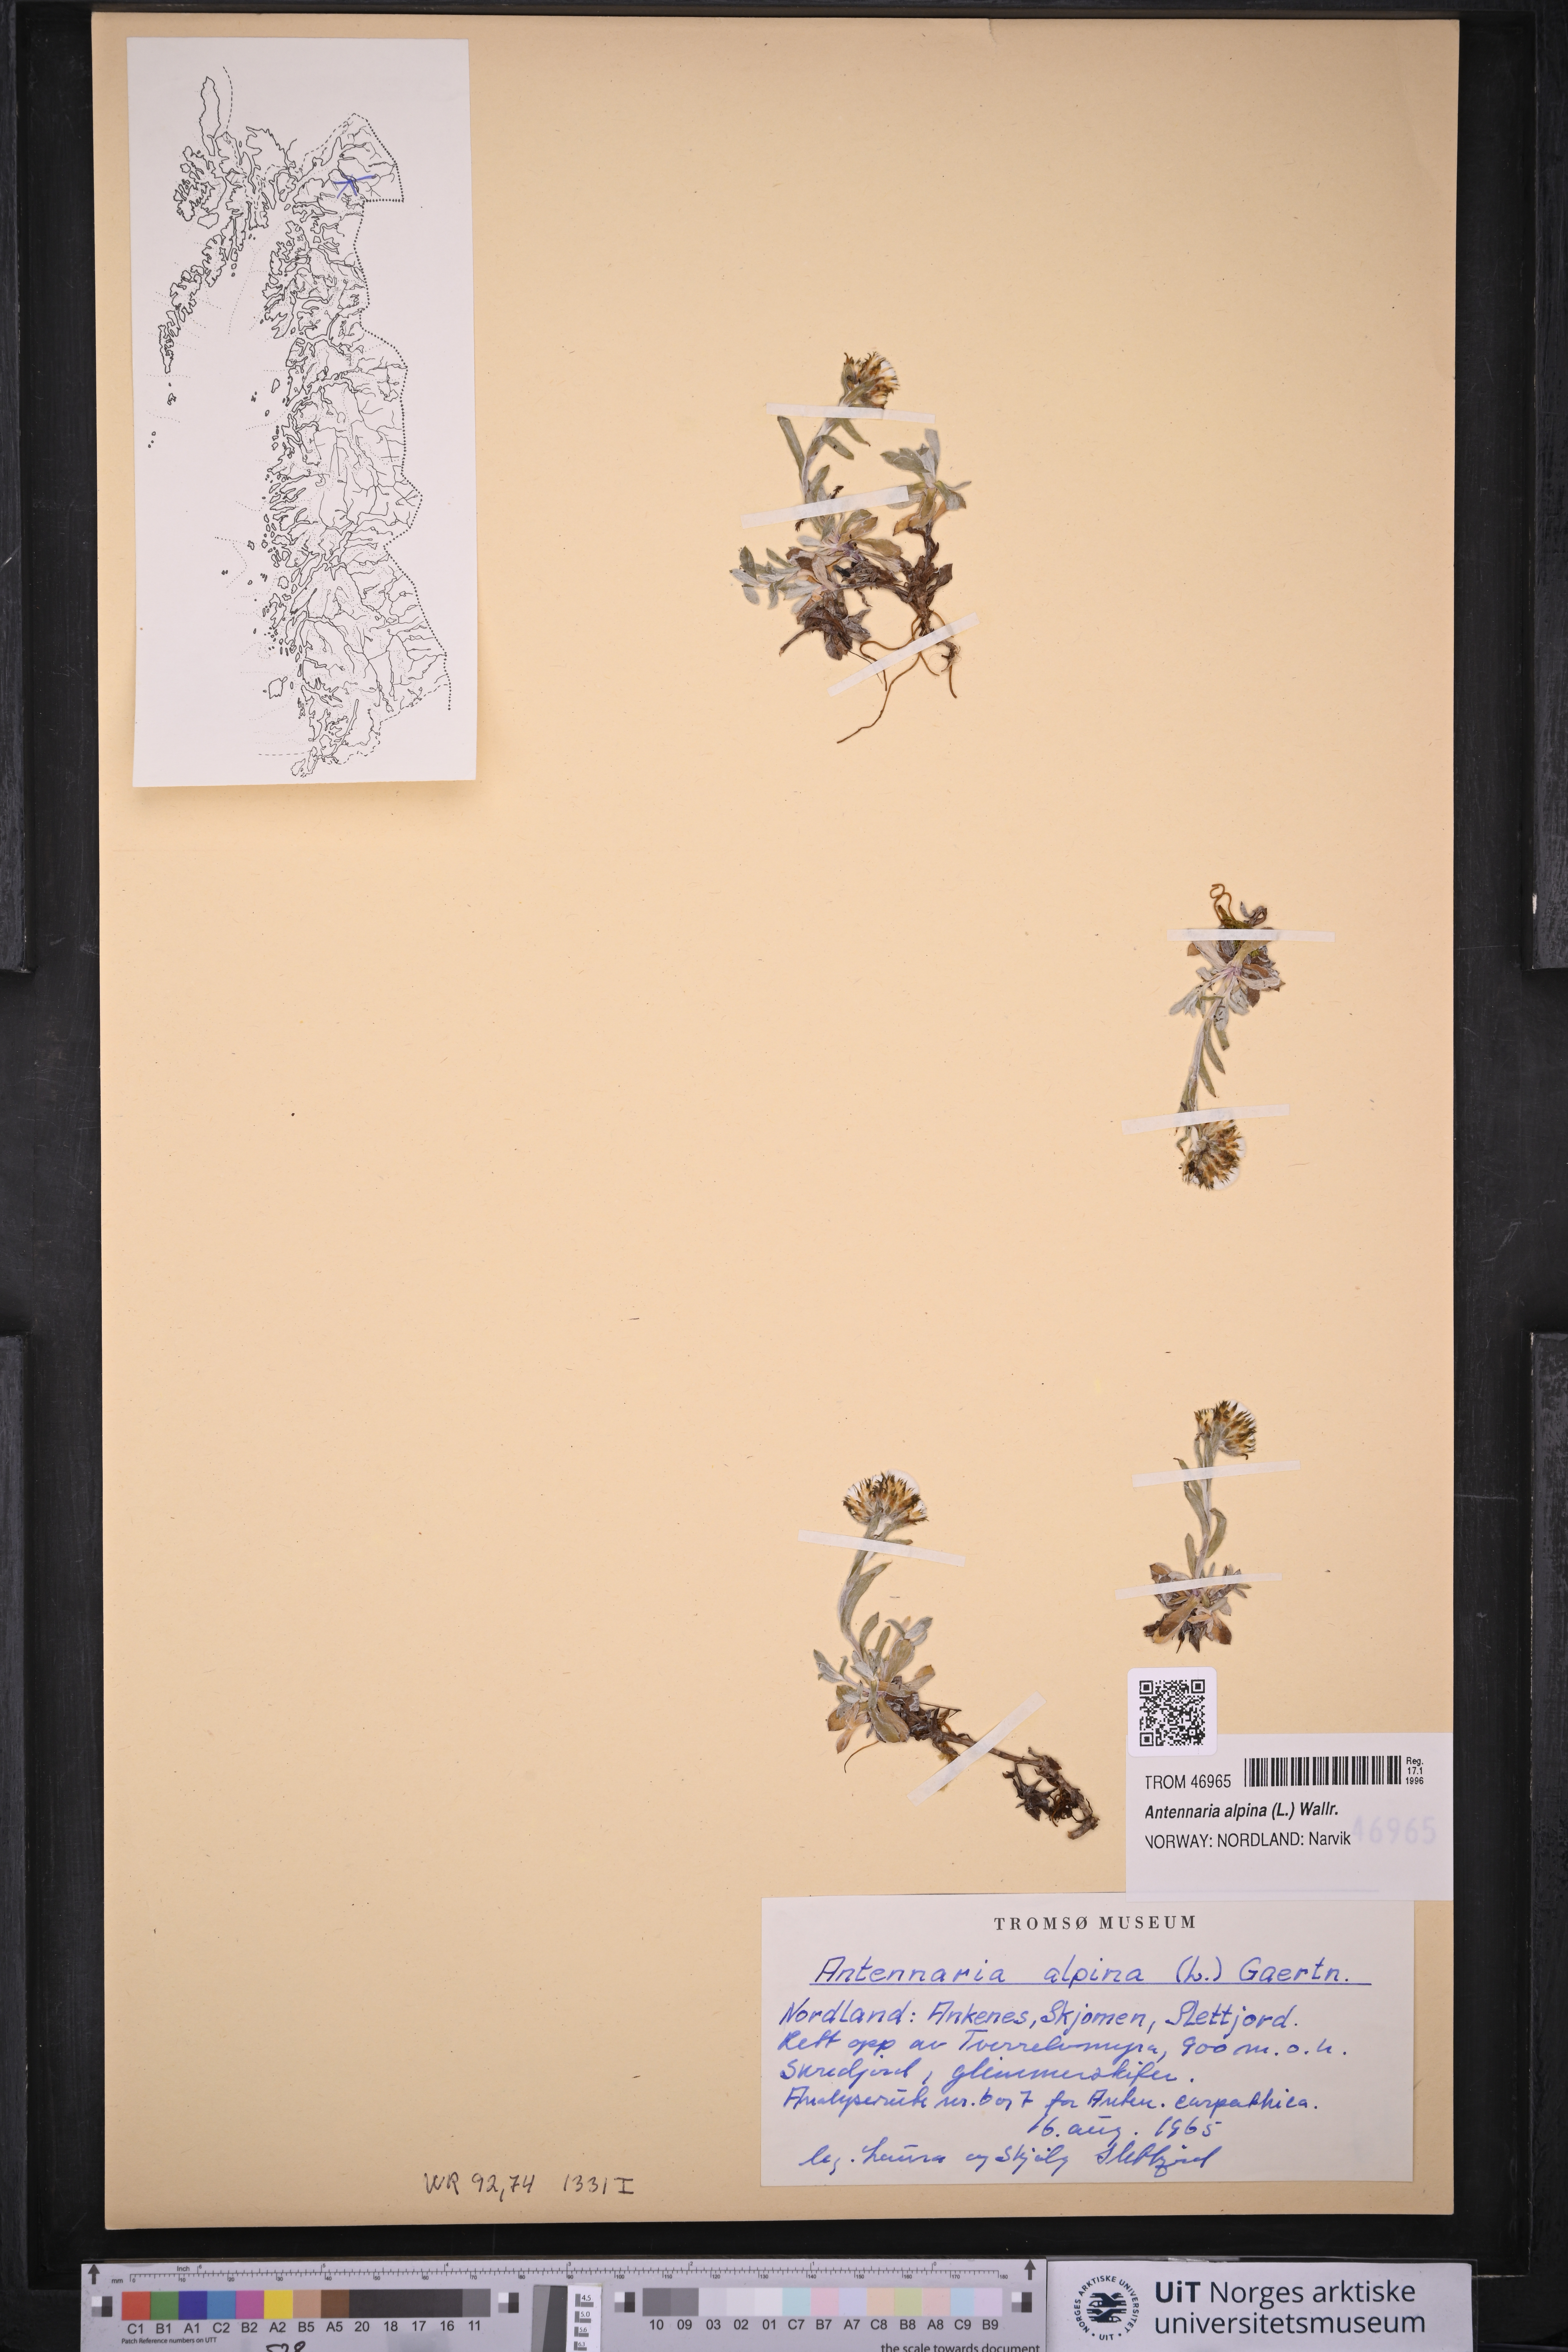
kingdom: Plantae
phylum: Tracheophyta
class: Magnoliopsida
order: Asterales
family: Asteraceae
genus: Antennaria
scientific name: Antennaria alpina
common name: Alpine pussytoes
